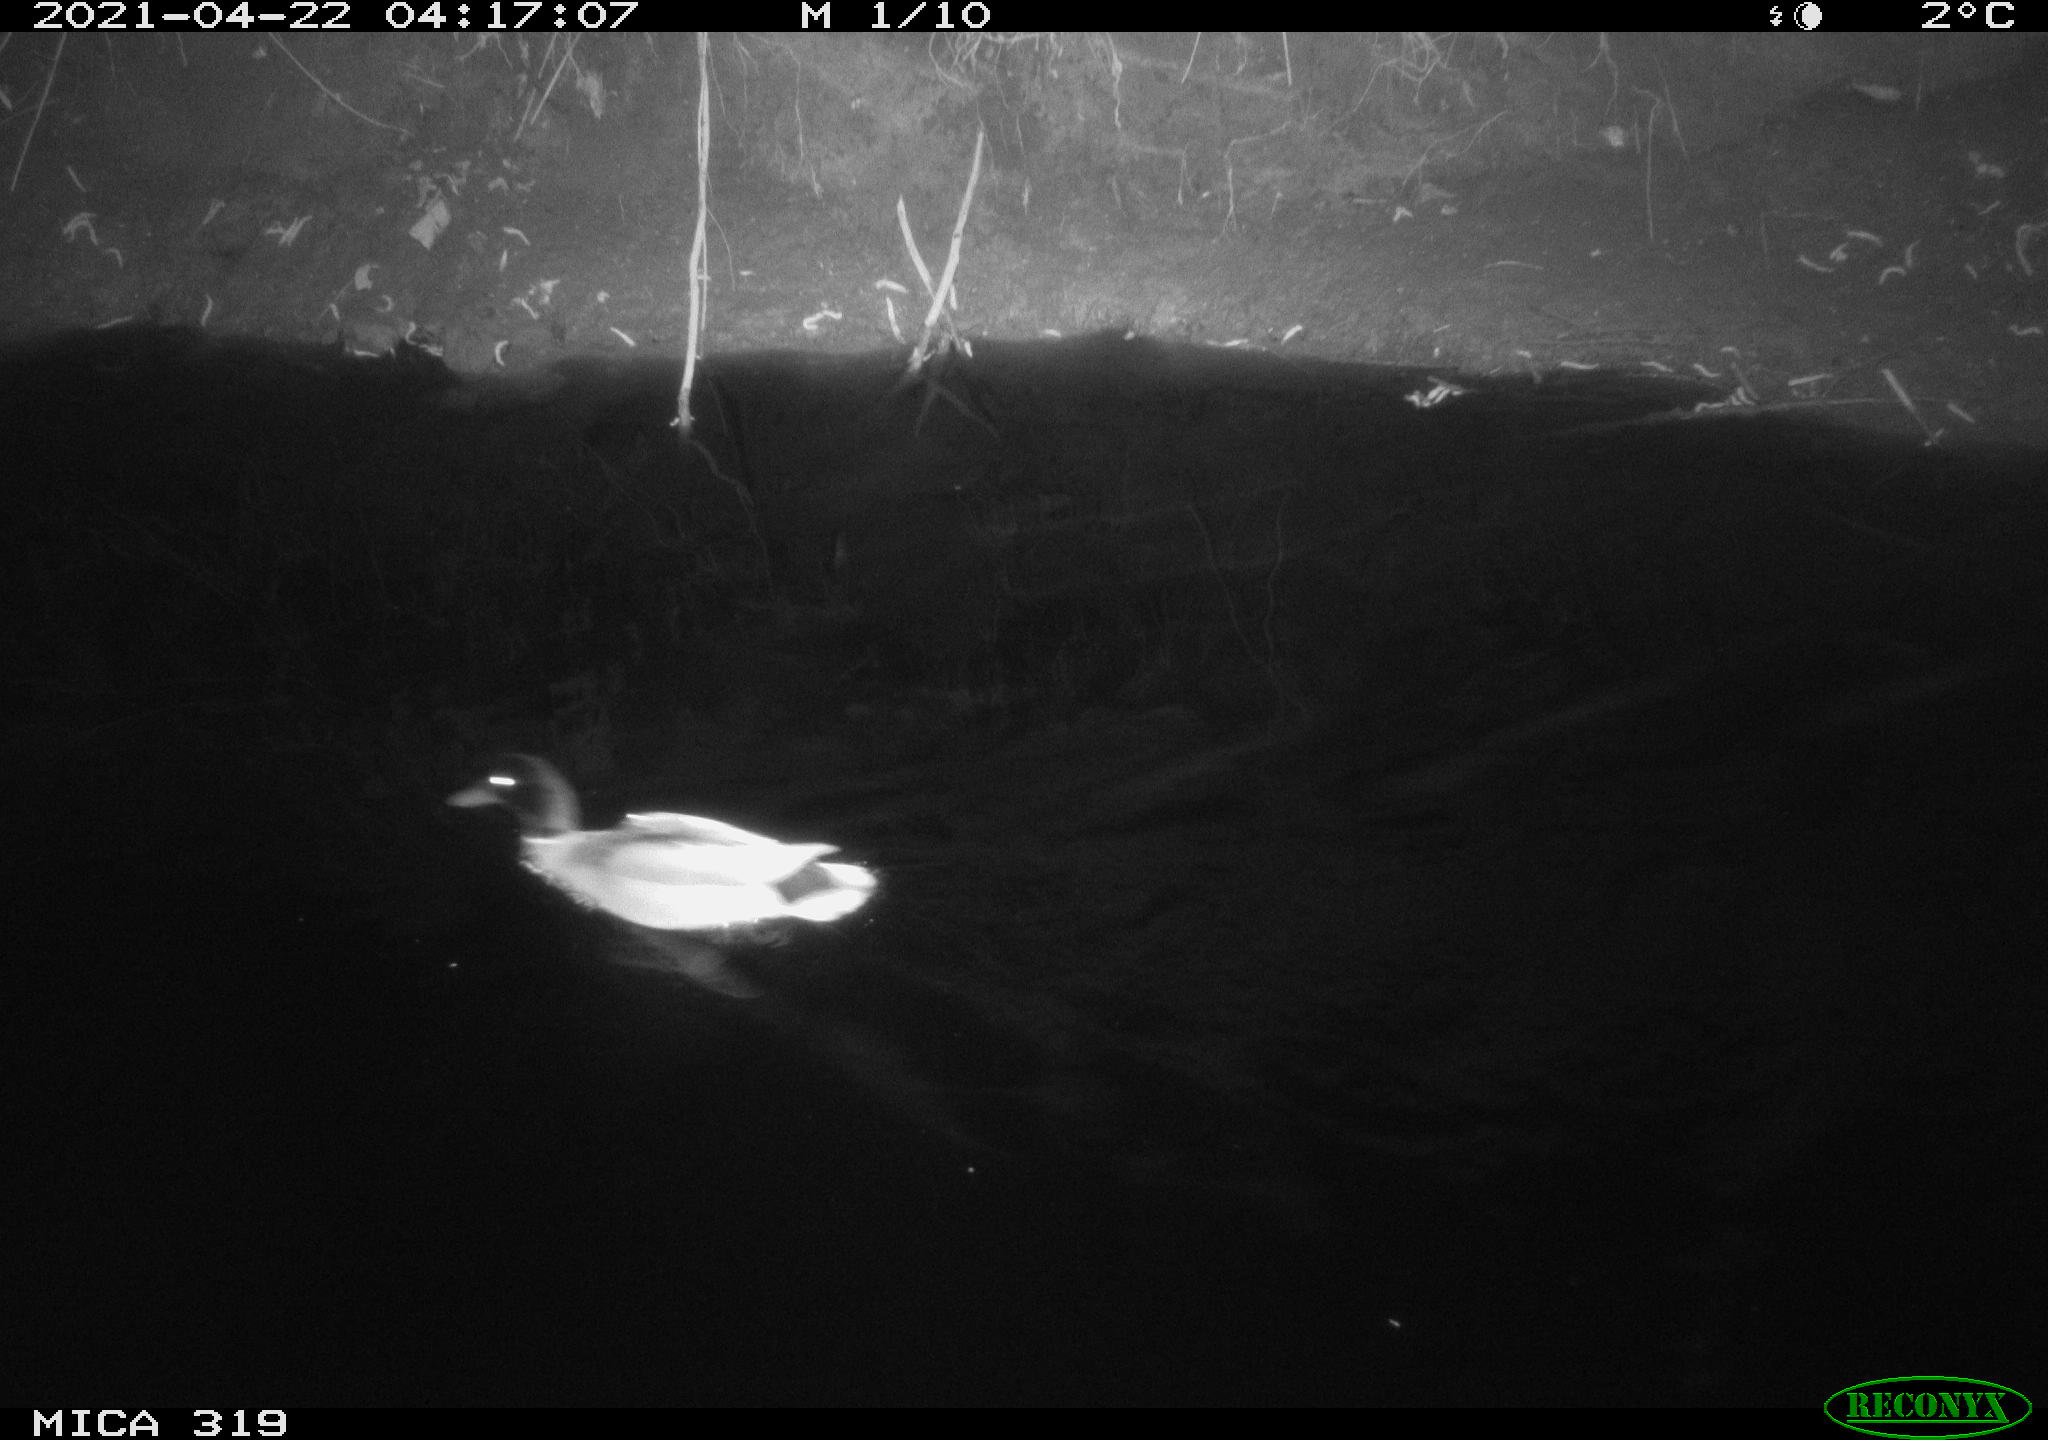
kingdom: Animalia
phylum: Chordata
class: Aves
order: Anseriformes
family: Anatidae
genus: Anas
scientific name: Anas platyrhynchos
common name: Mallard
